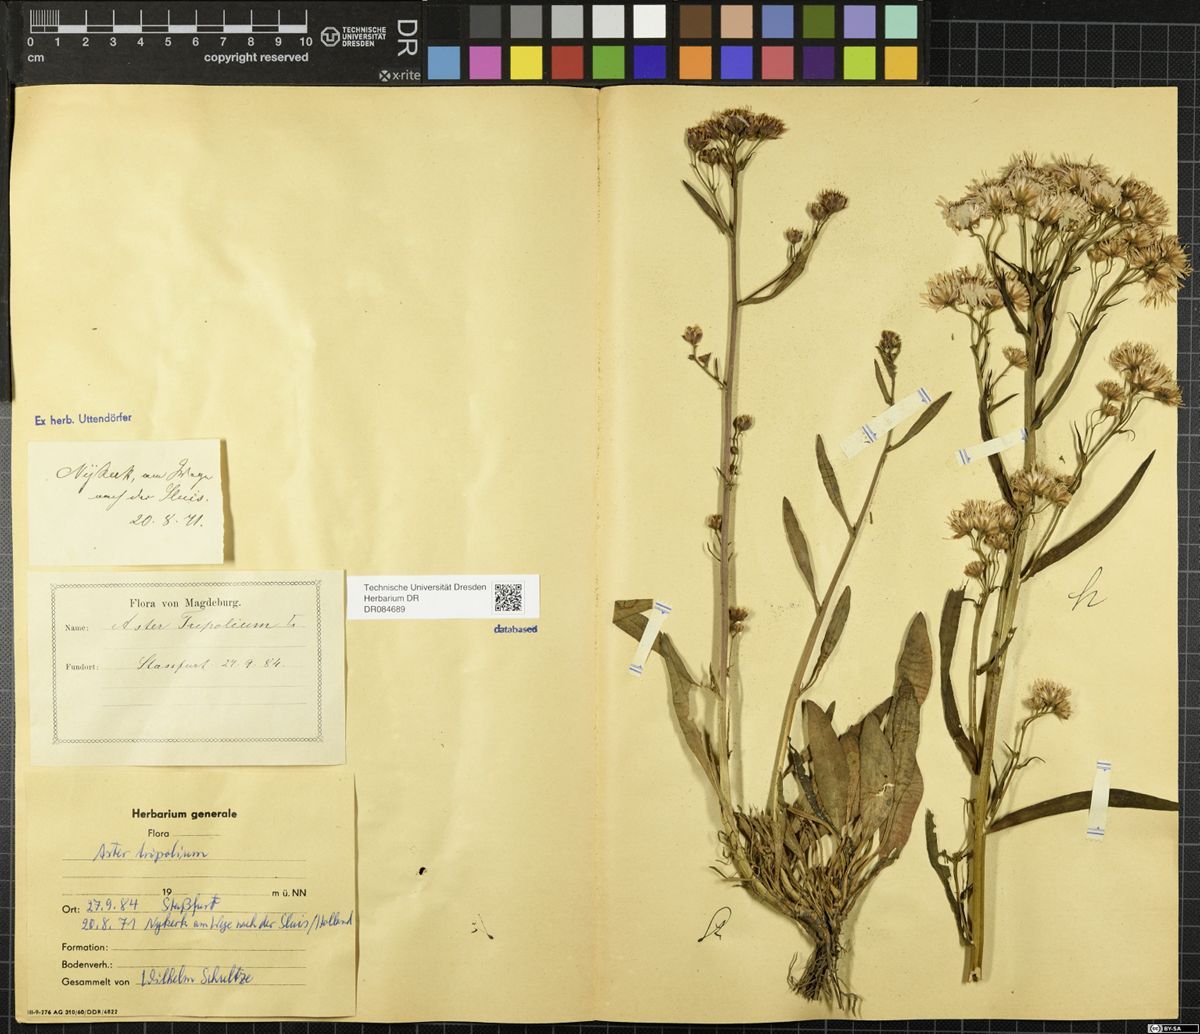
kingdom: Plantae
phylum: Tracheophyta
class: Magnoliopsida
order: Asterales
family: Asteraceae
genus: Tripolium
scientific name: Tripolium pannonicum
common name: Sea aster
